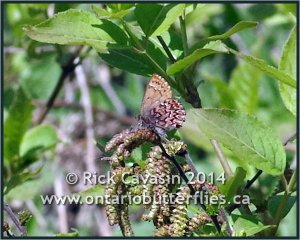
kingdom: Animalia
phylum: Arthropoda
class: Insecta
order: Lepidoptera
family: Lycaenidae
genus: Incisalia
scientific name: Incisalia eryphon
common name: Western Pine Elfin
